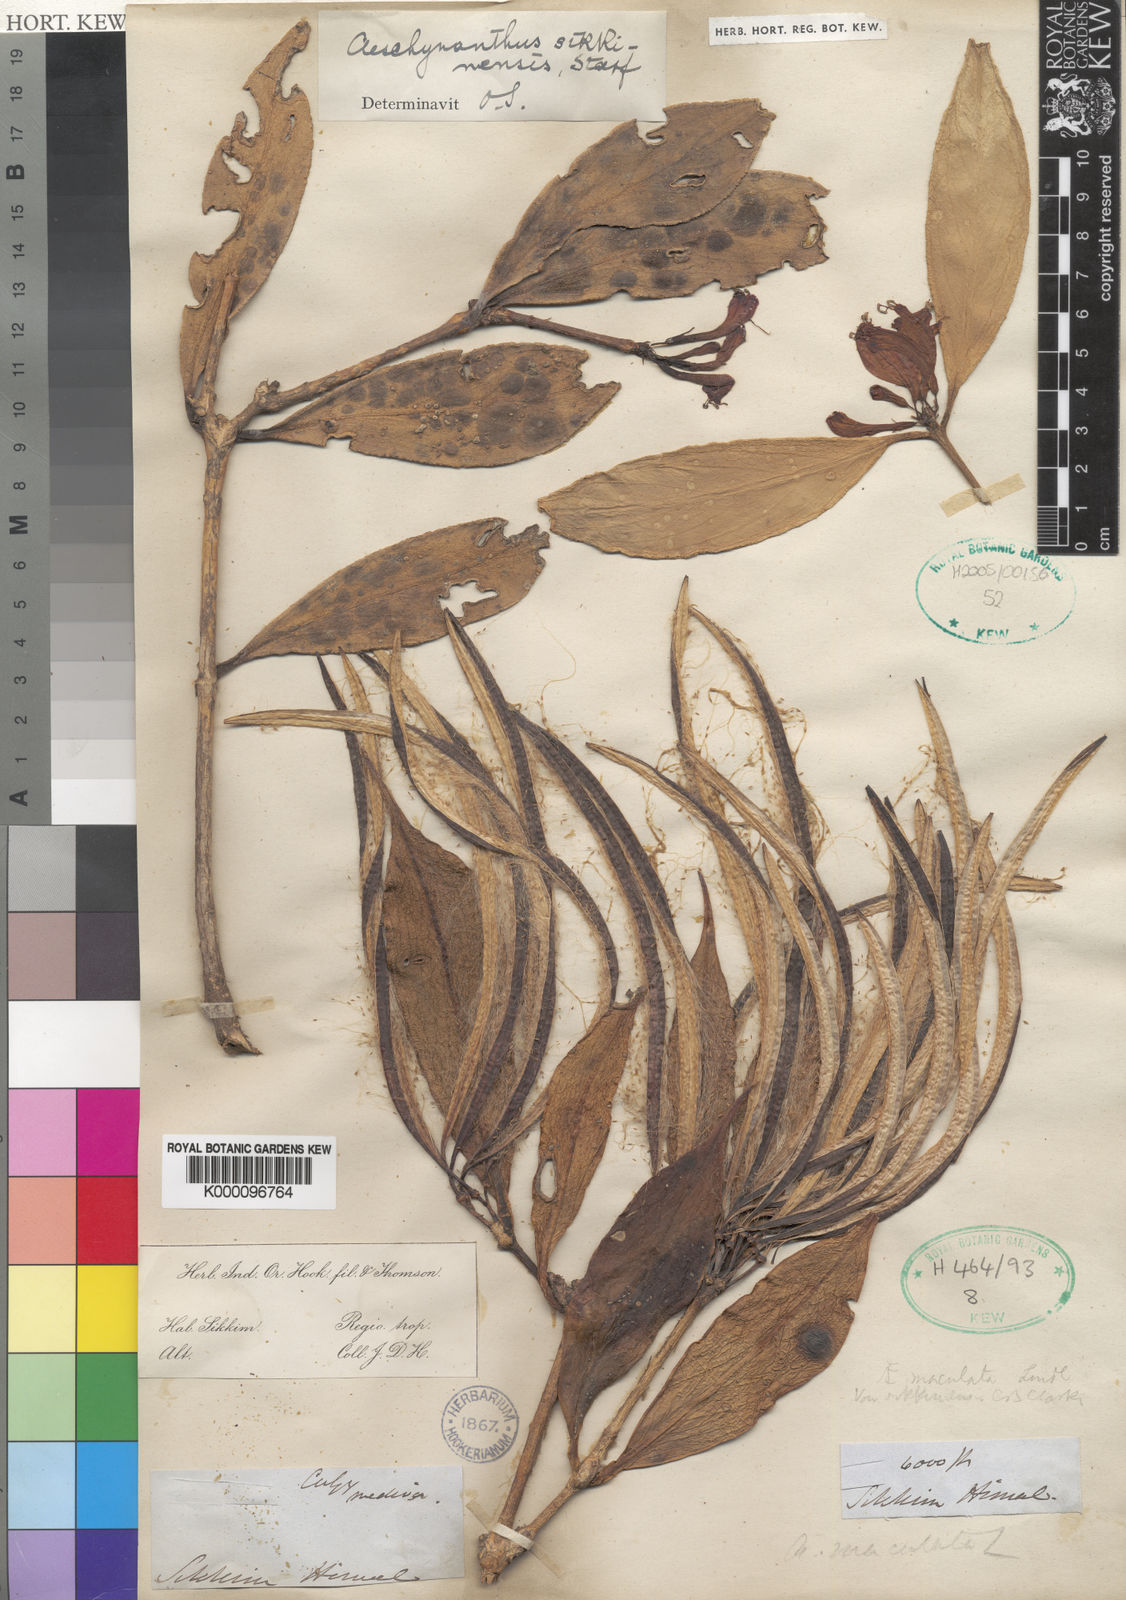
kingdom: Plantae
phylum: Tracheophyta
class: Magnoliopsida
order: Lamiales
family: Gesneriaceae
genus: Aeschynanthus
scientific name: Aeschynanthus parviflorus
